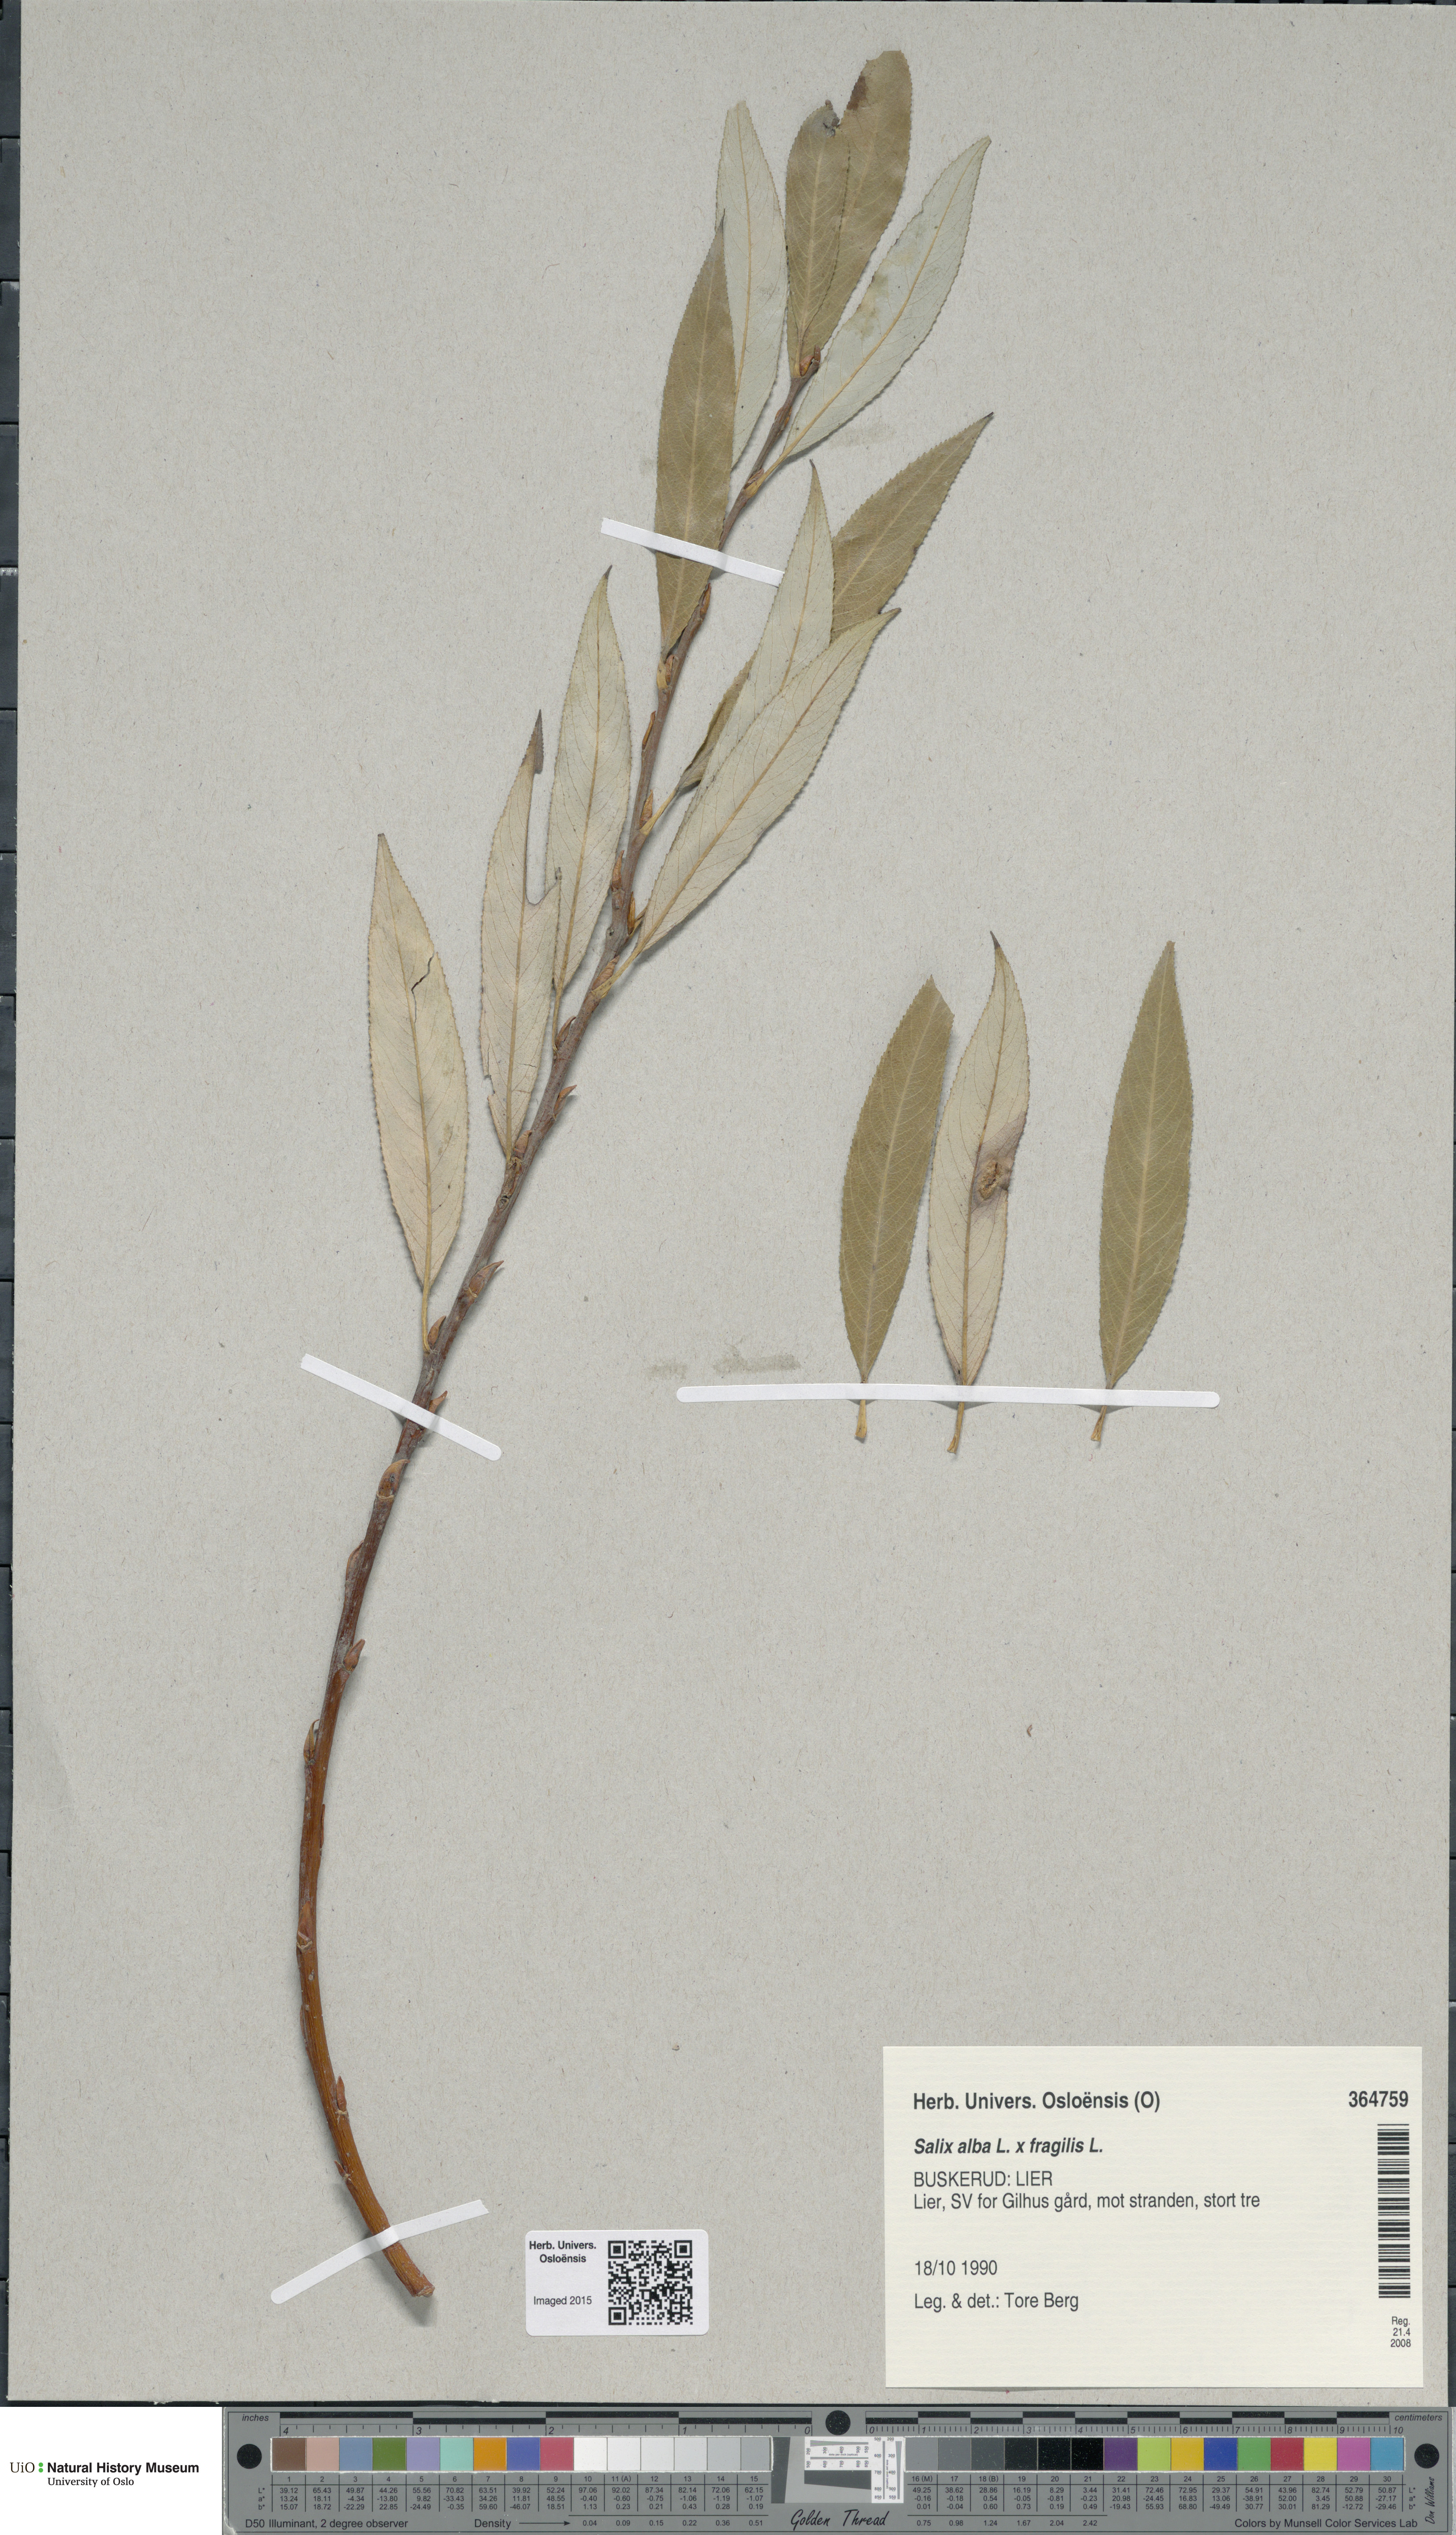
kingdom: Plantae
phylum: Tracheophyta
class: Magnoliopsida
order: Malpighiales
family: Salicaceae
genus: Salix
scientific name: Salix
